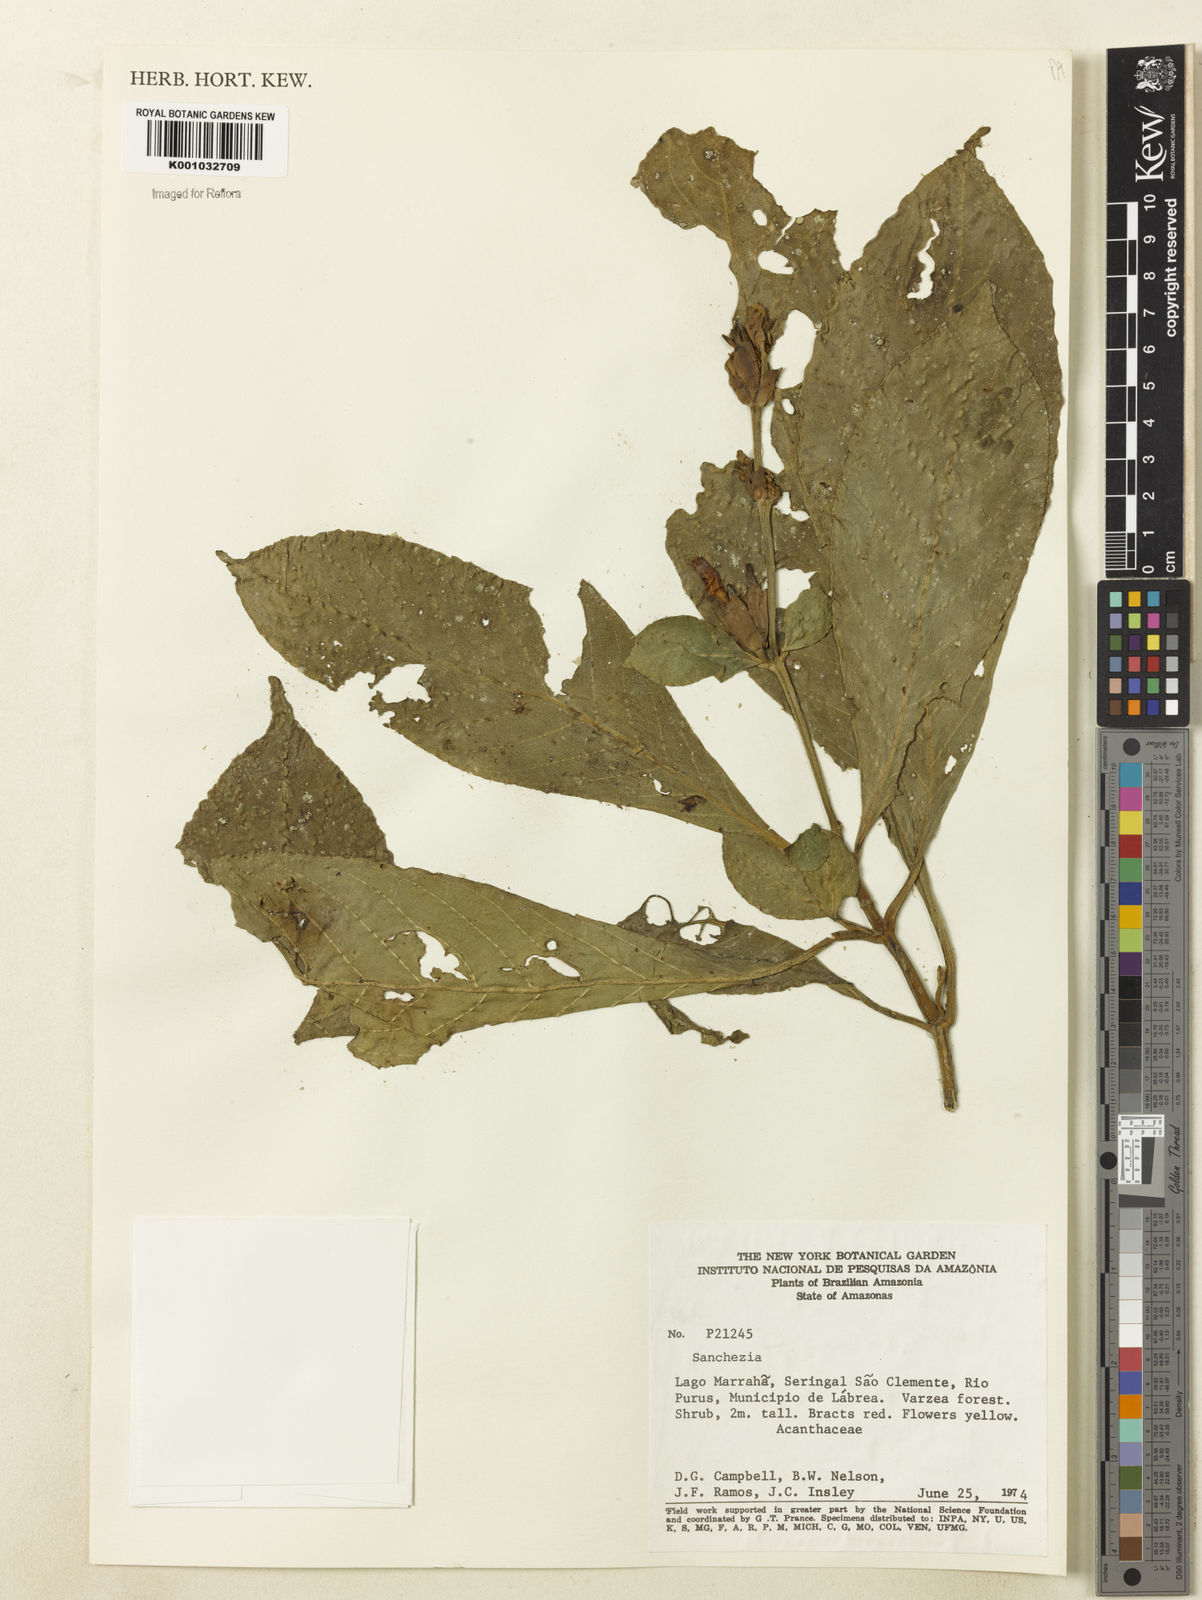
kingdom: Plantae
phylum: Tracheophyta
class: Magnoliopsida
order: Lamiales
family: Acanthaceae
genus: Sanchezia
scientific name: Sanchezia
